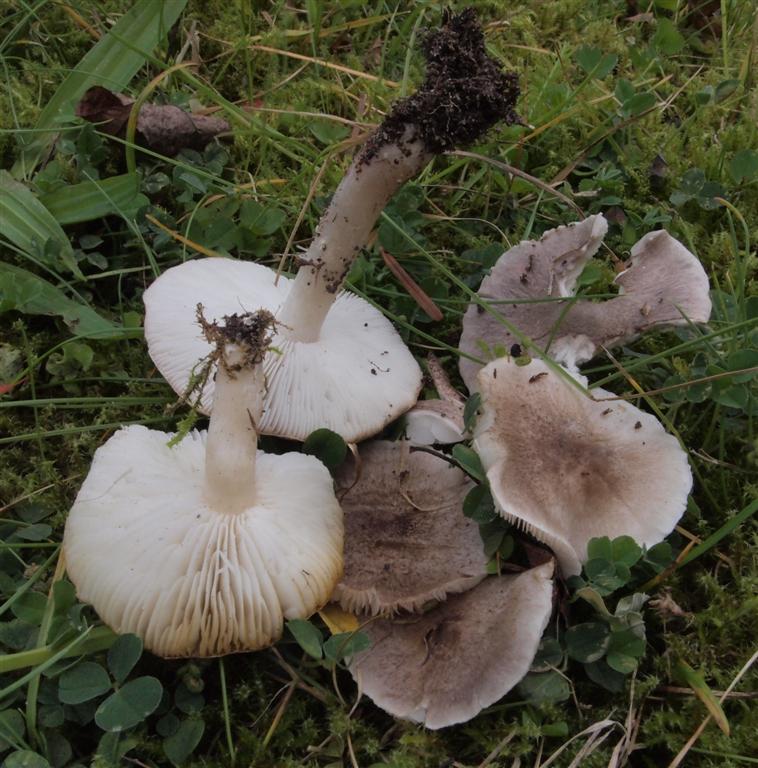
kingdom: Fungi
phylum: Basidiomycota
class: Agaricomycetes
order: Agaricales
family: Tricholomataceae
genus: Tricholoma
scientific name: Tricholoma argyraceum
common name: slør-ridderhat
